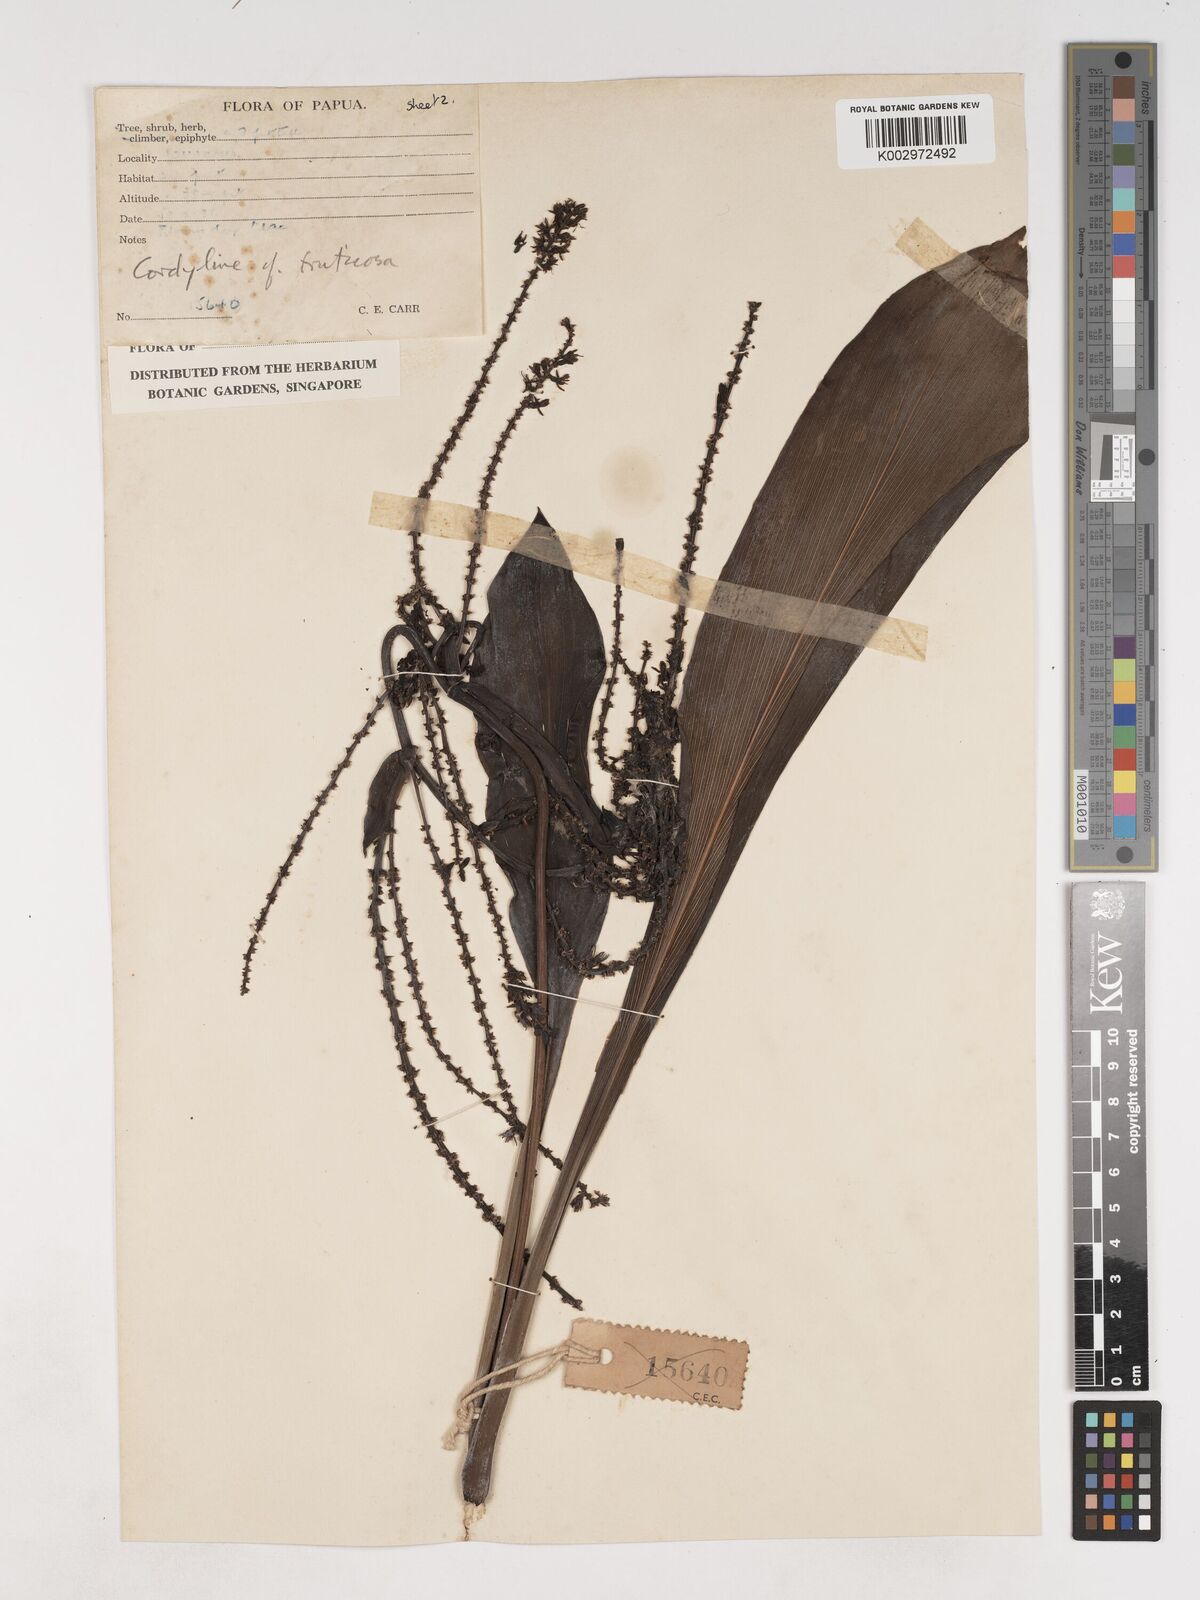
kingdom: Plantae
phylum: Tracheophyta
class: Liliopsida
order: Asparagales
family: Asparagaceae
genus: Cordyline
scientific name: Cordyline fruticosa
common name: Good-luck-plant
